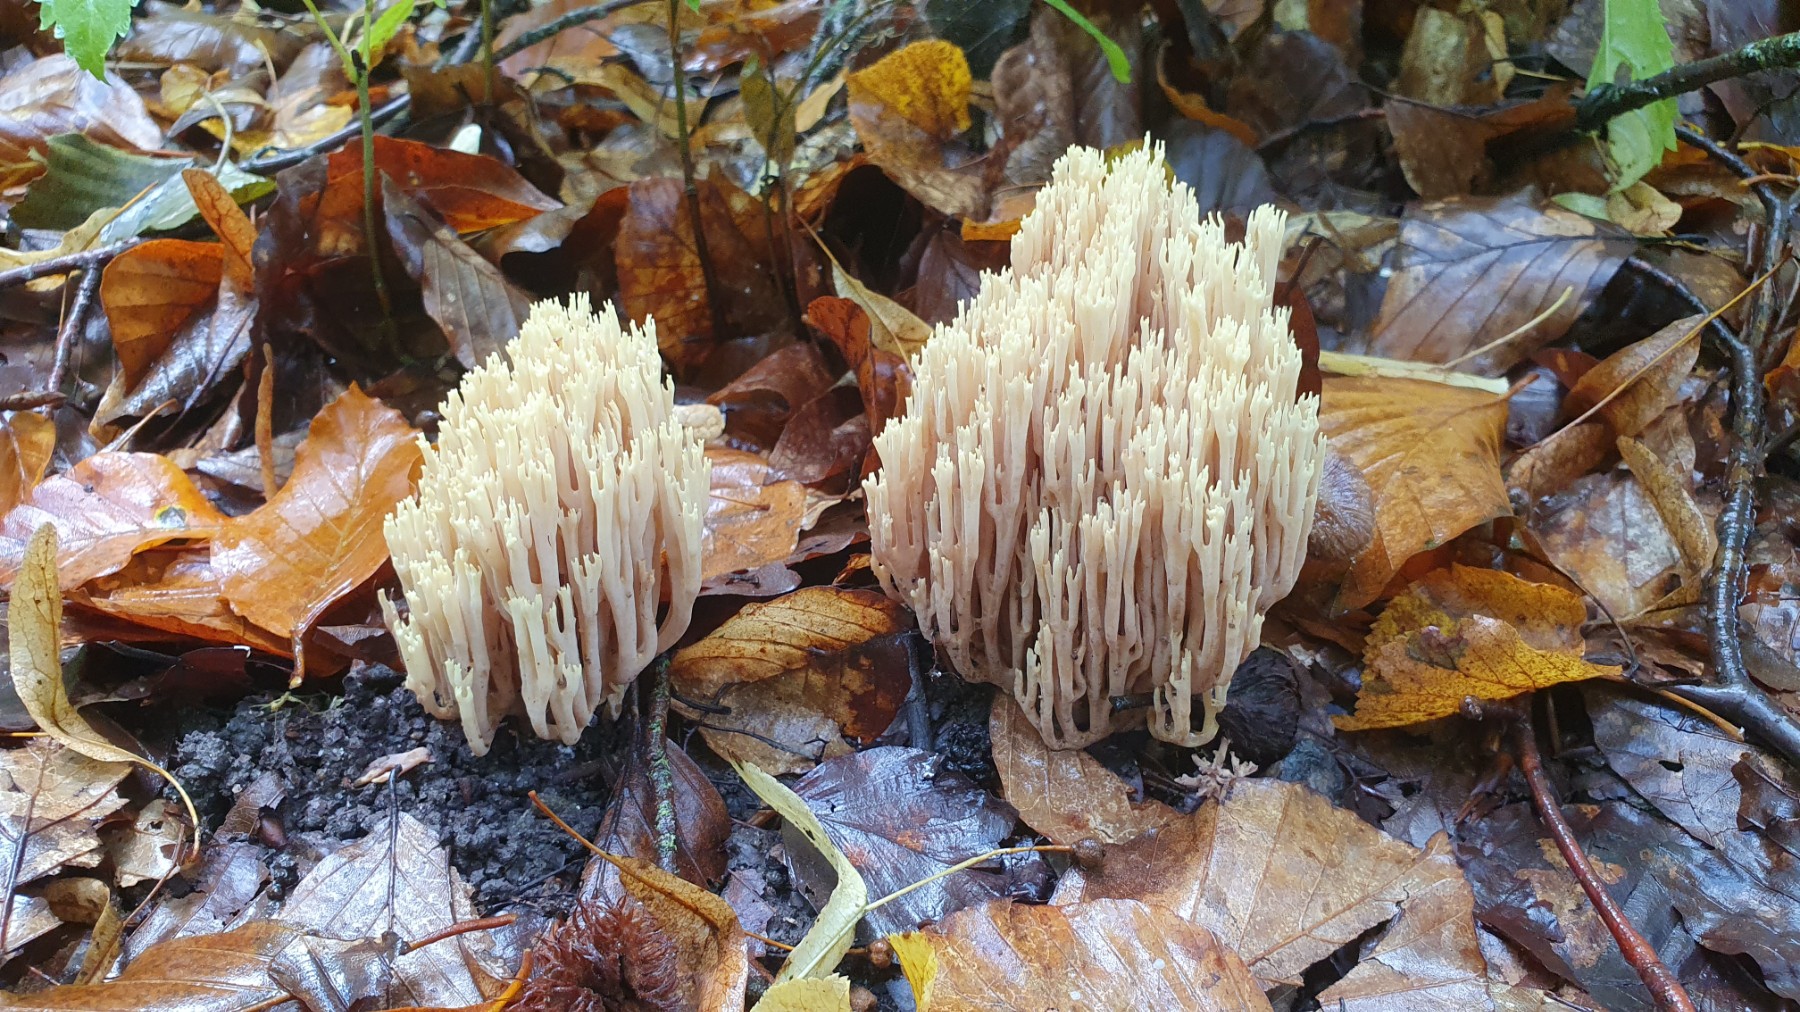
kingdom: Fungi
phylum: Basidiomycota
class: Agaricomycetes
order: Gomphales
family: Gomphaceae
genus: Ramaria
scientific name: Ramaria stricta
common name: rank koralsvamp
